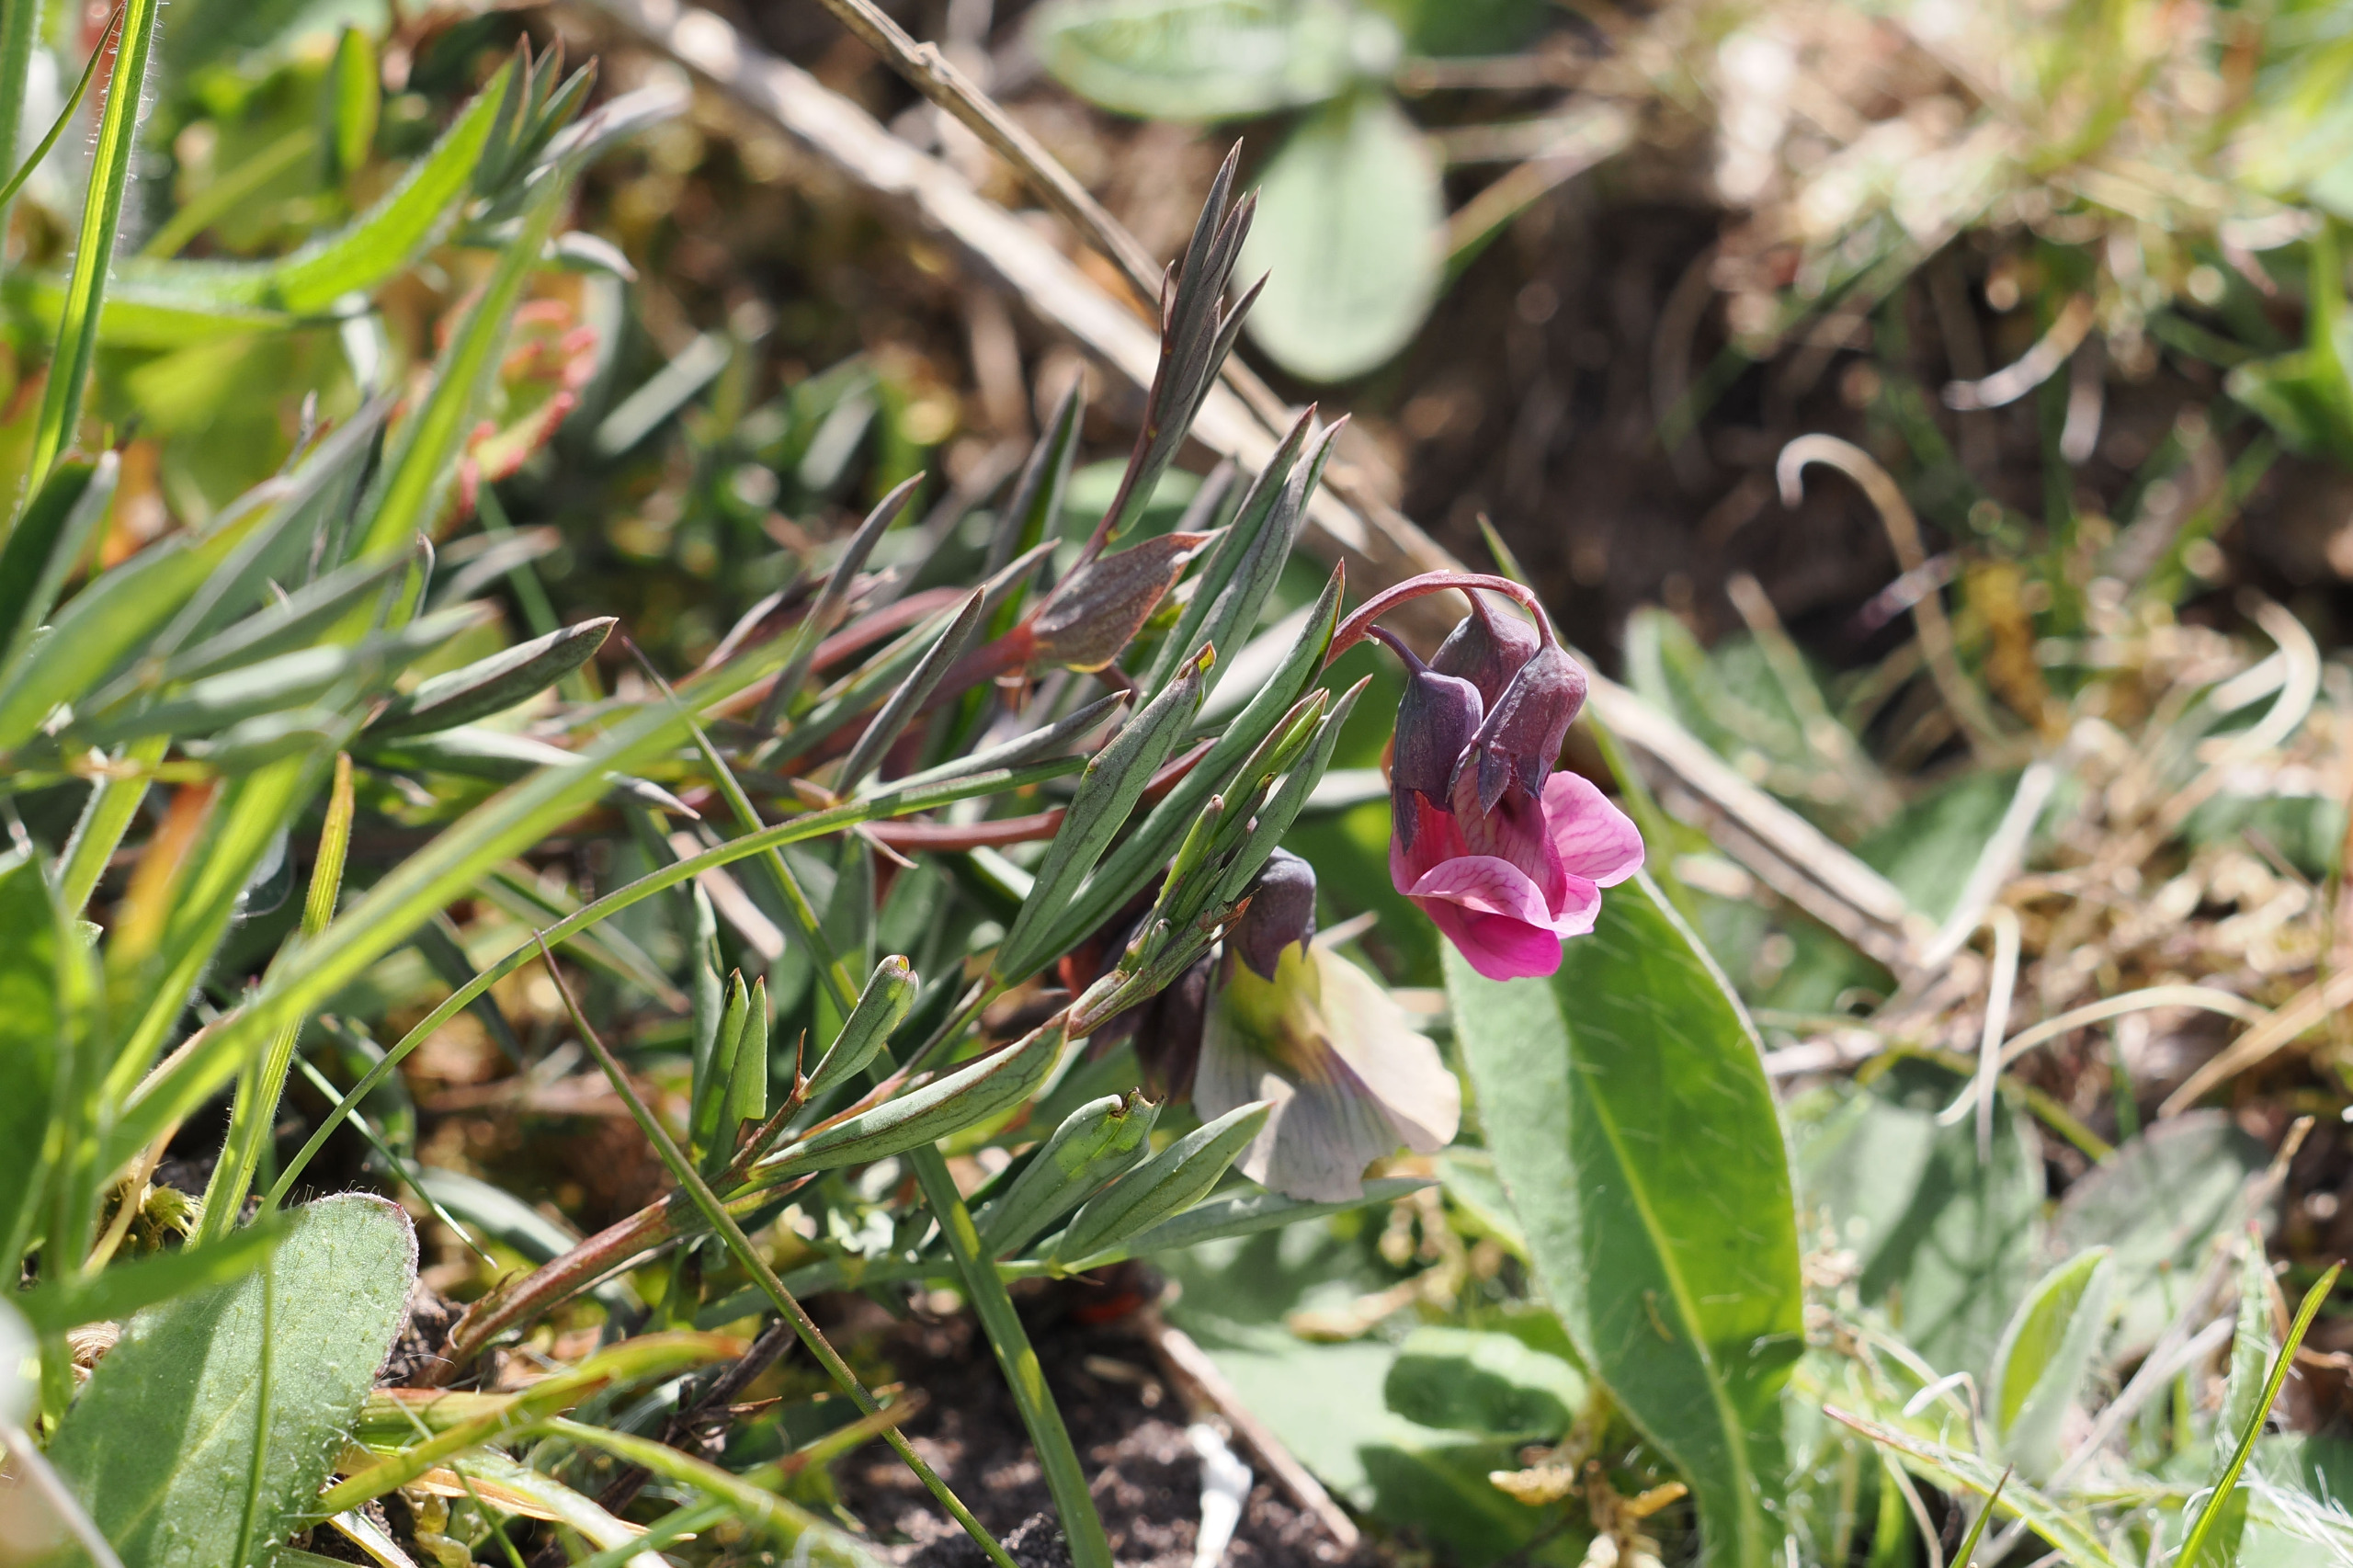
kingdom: Plantae
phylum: Tracheophyta
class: Magnoliopsida
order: Fabales
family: Fabaceae
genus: Lathyrus
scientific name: Lathyrus linifolius
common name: Krat-fladbælg
